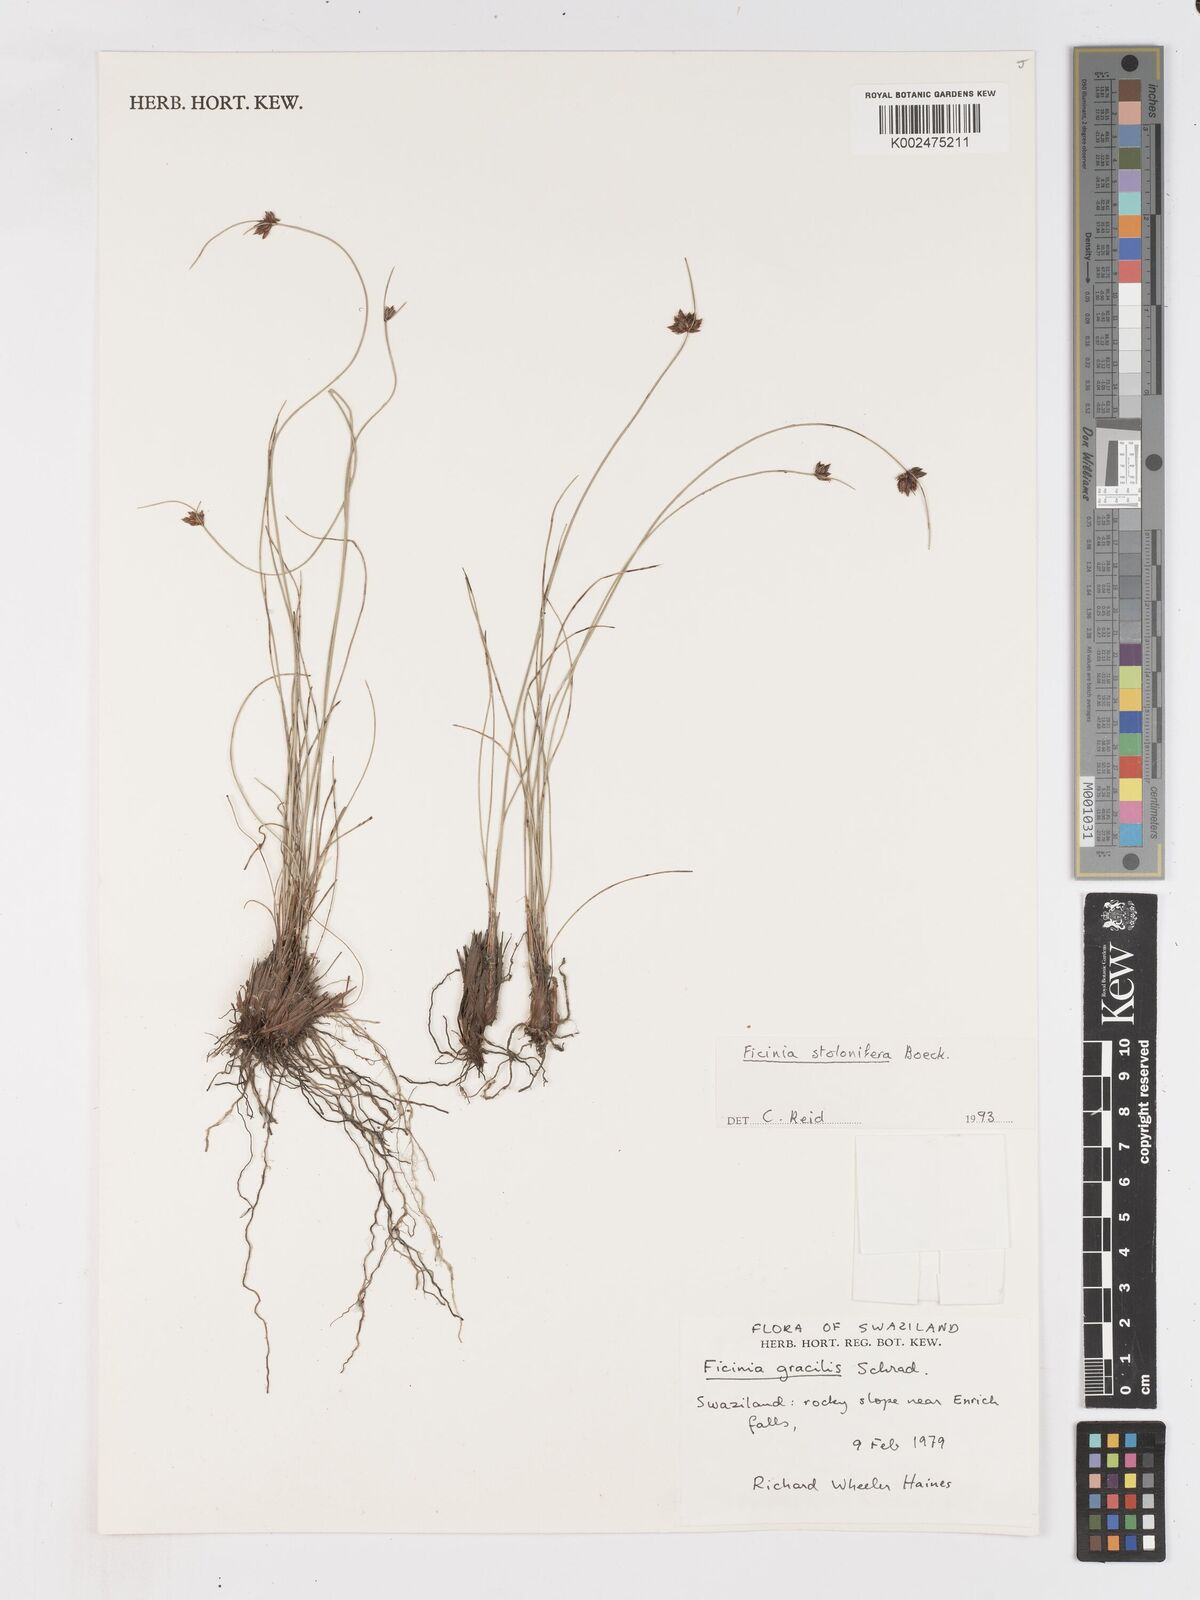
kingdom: Plantae
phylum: Tracheophyta
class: Liliopsida
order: Poales
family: Cyperaceae
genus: Ficinia
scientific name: Ficinia stolonifera
